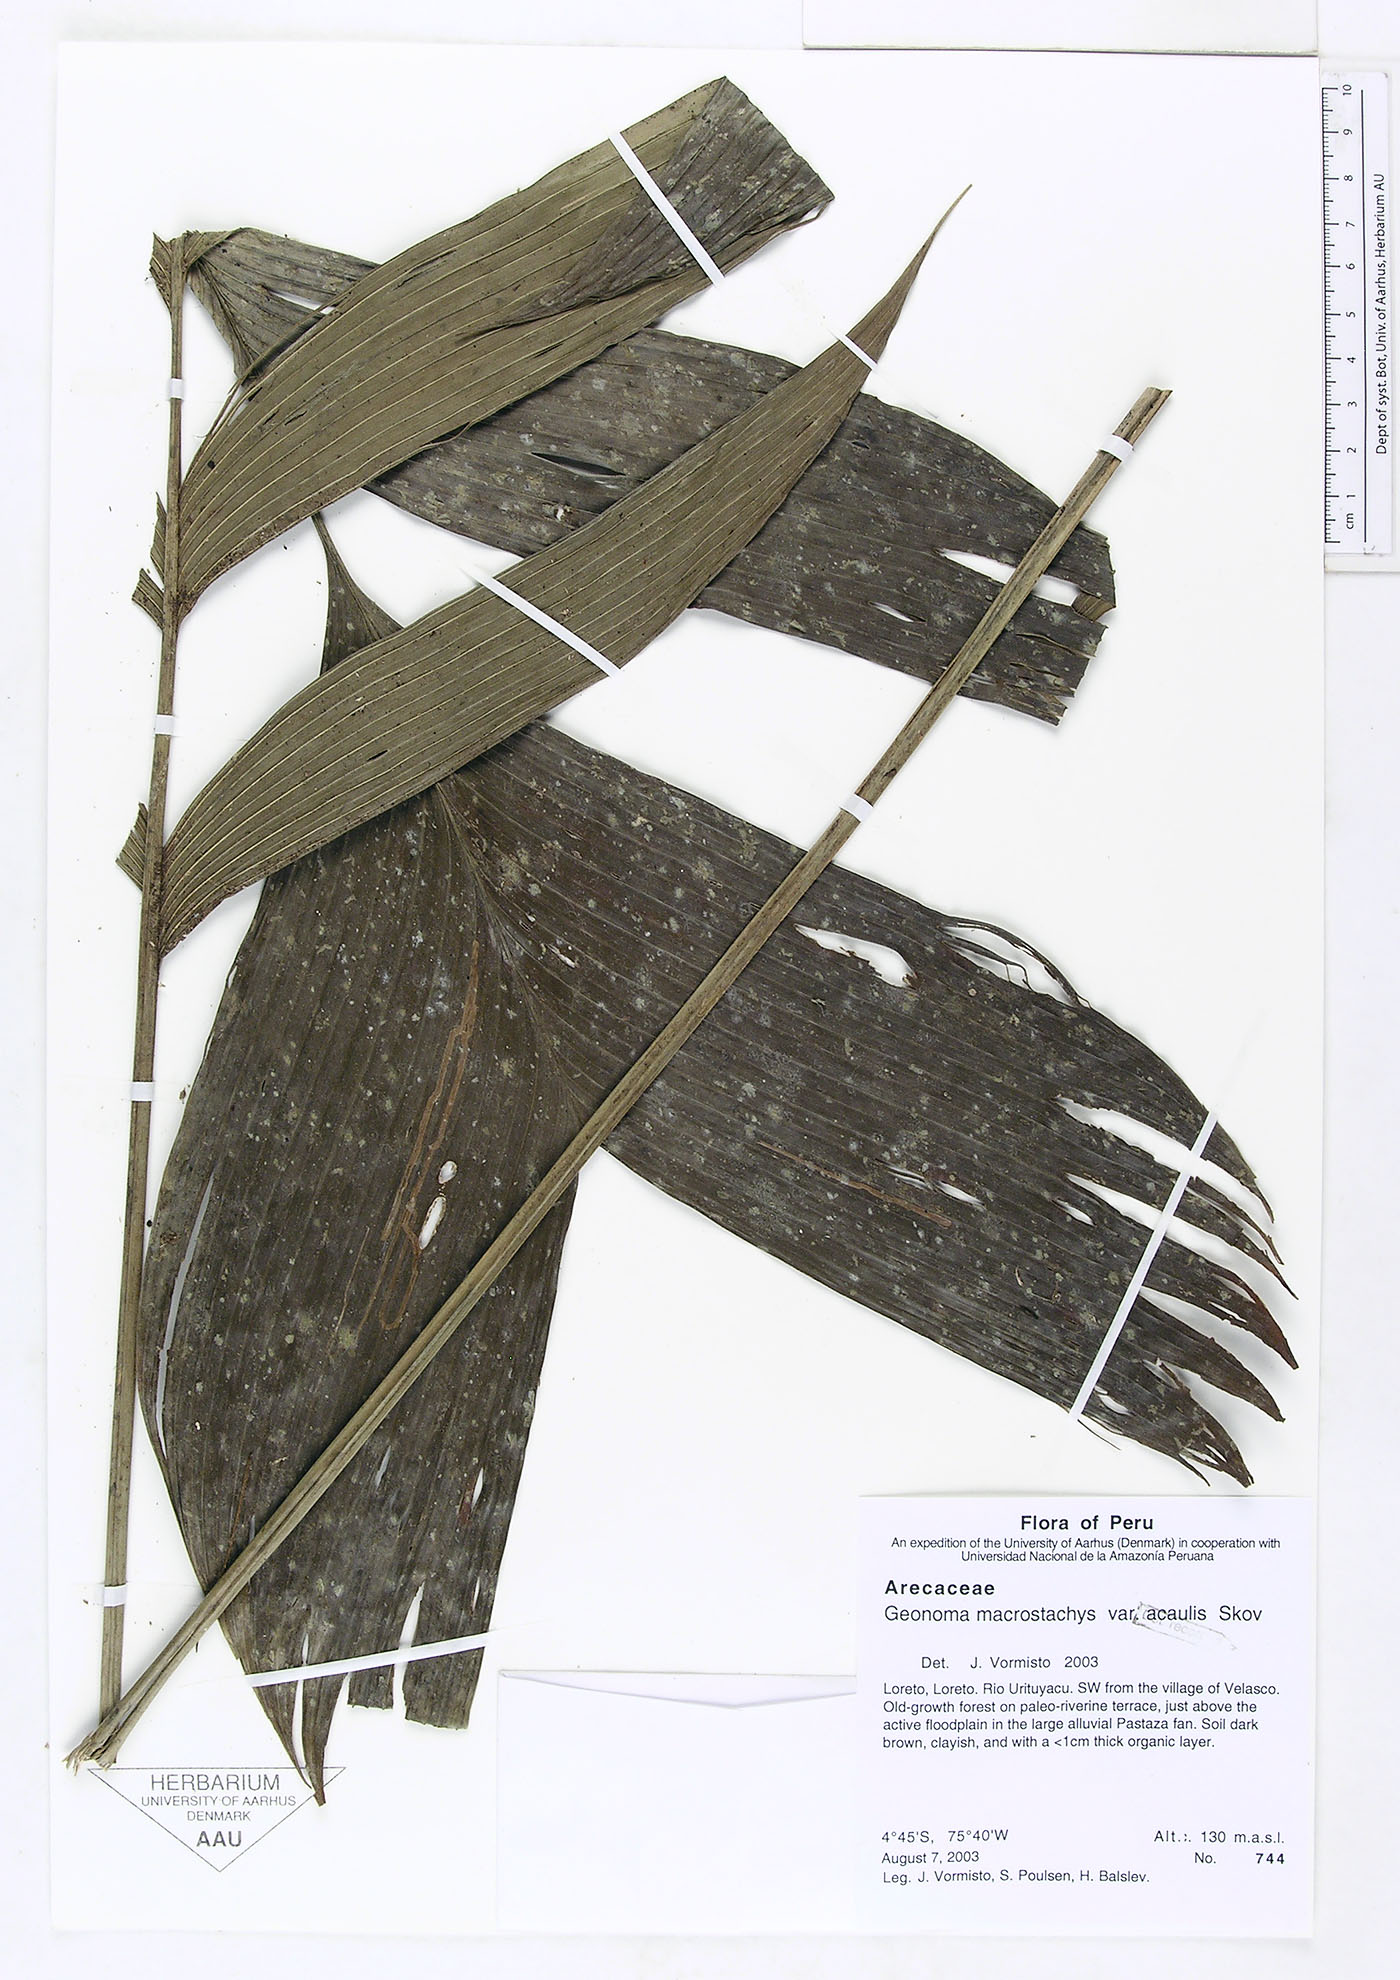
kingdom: Plantae
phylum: Tracheophyta
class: Liliopsida
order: Arecales
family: Arecaceae
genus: Geonoma
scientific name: Geonoma macrostachys
